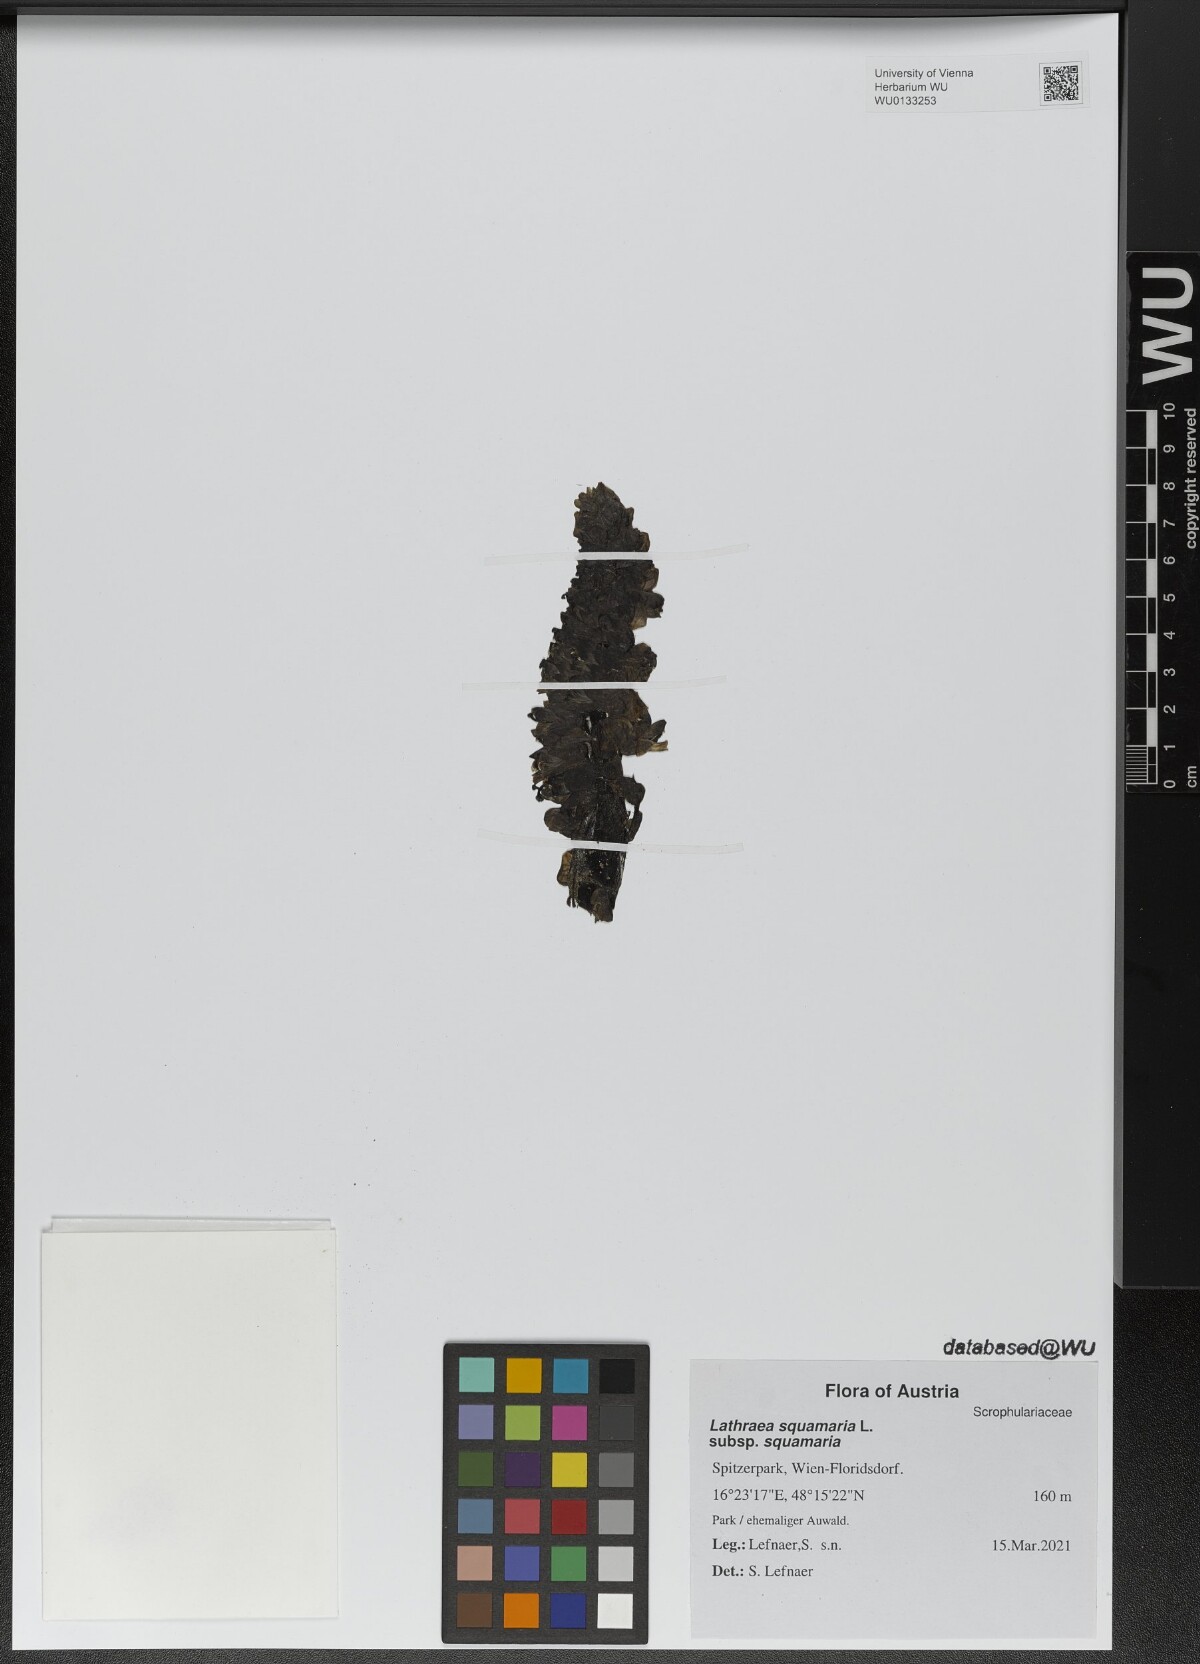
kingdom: Plantae
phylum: Tracheophyta
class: Magnoliopsida
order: Lamiales
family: Orobanchaceae
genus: Lathraea
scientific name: Lathraea squamaria
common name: Toothwort
